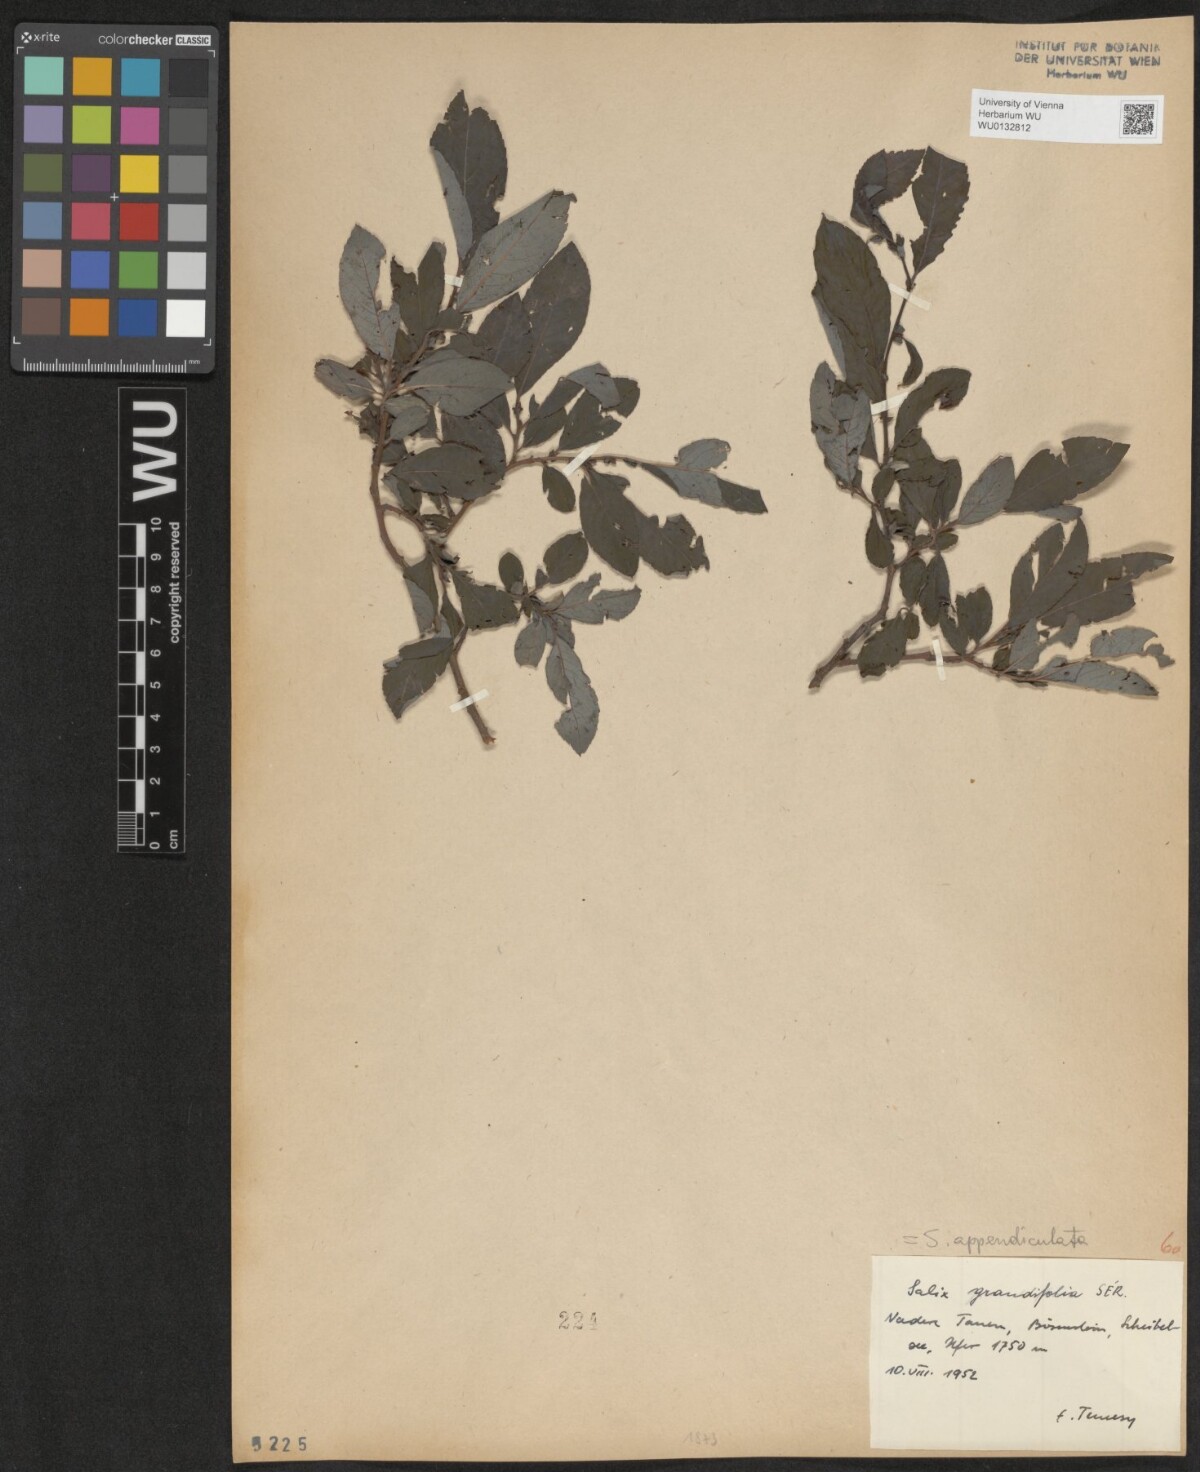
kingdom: Plantae
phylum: Tracheophyta
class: Magnoliopsida
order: Malpighiales
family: Salicaceae
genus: Salix
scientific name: Salix appendiculata
